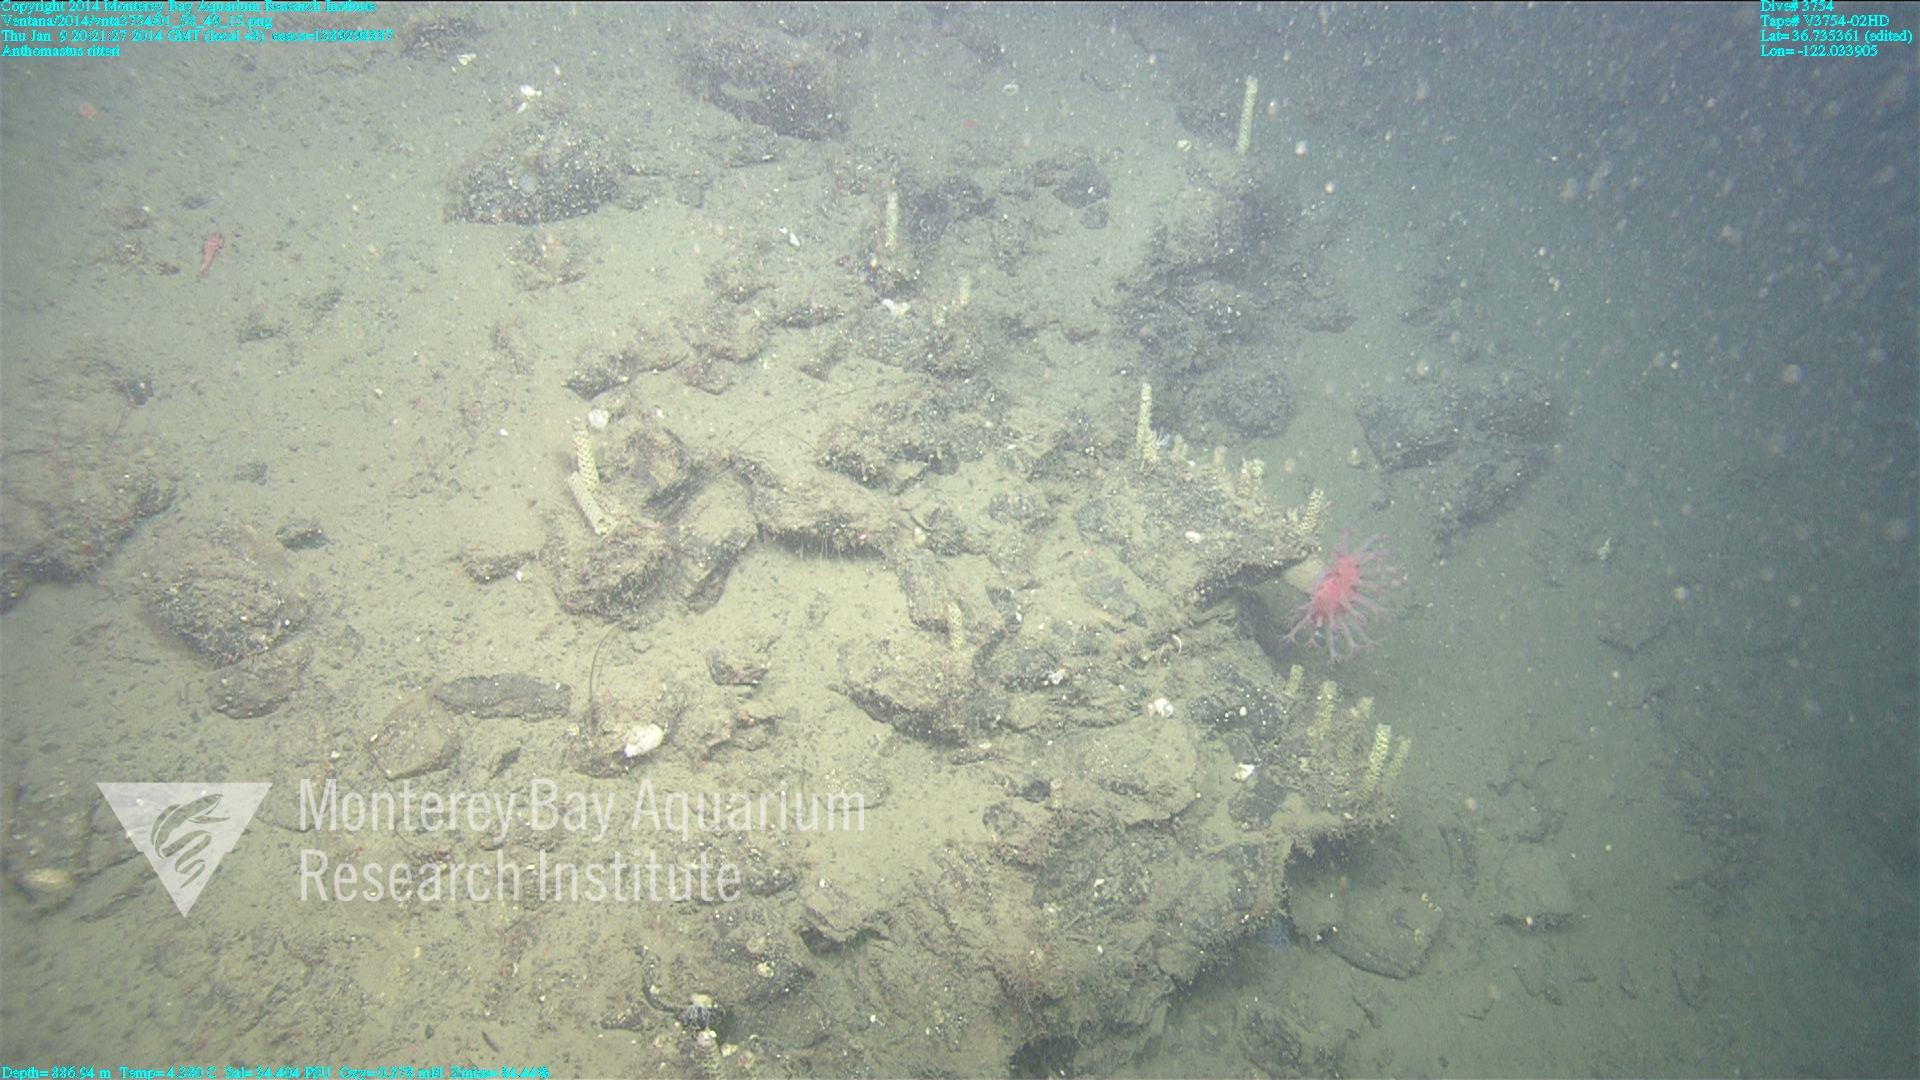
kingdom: Animalia
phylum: Cnidaria
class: Anthozoa
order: Scleralcyonacea
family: Coralliidae
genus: Heteropolypus
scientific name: Heteropolypus ritteri
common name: Ritter's soft coral
